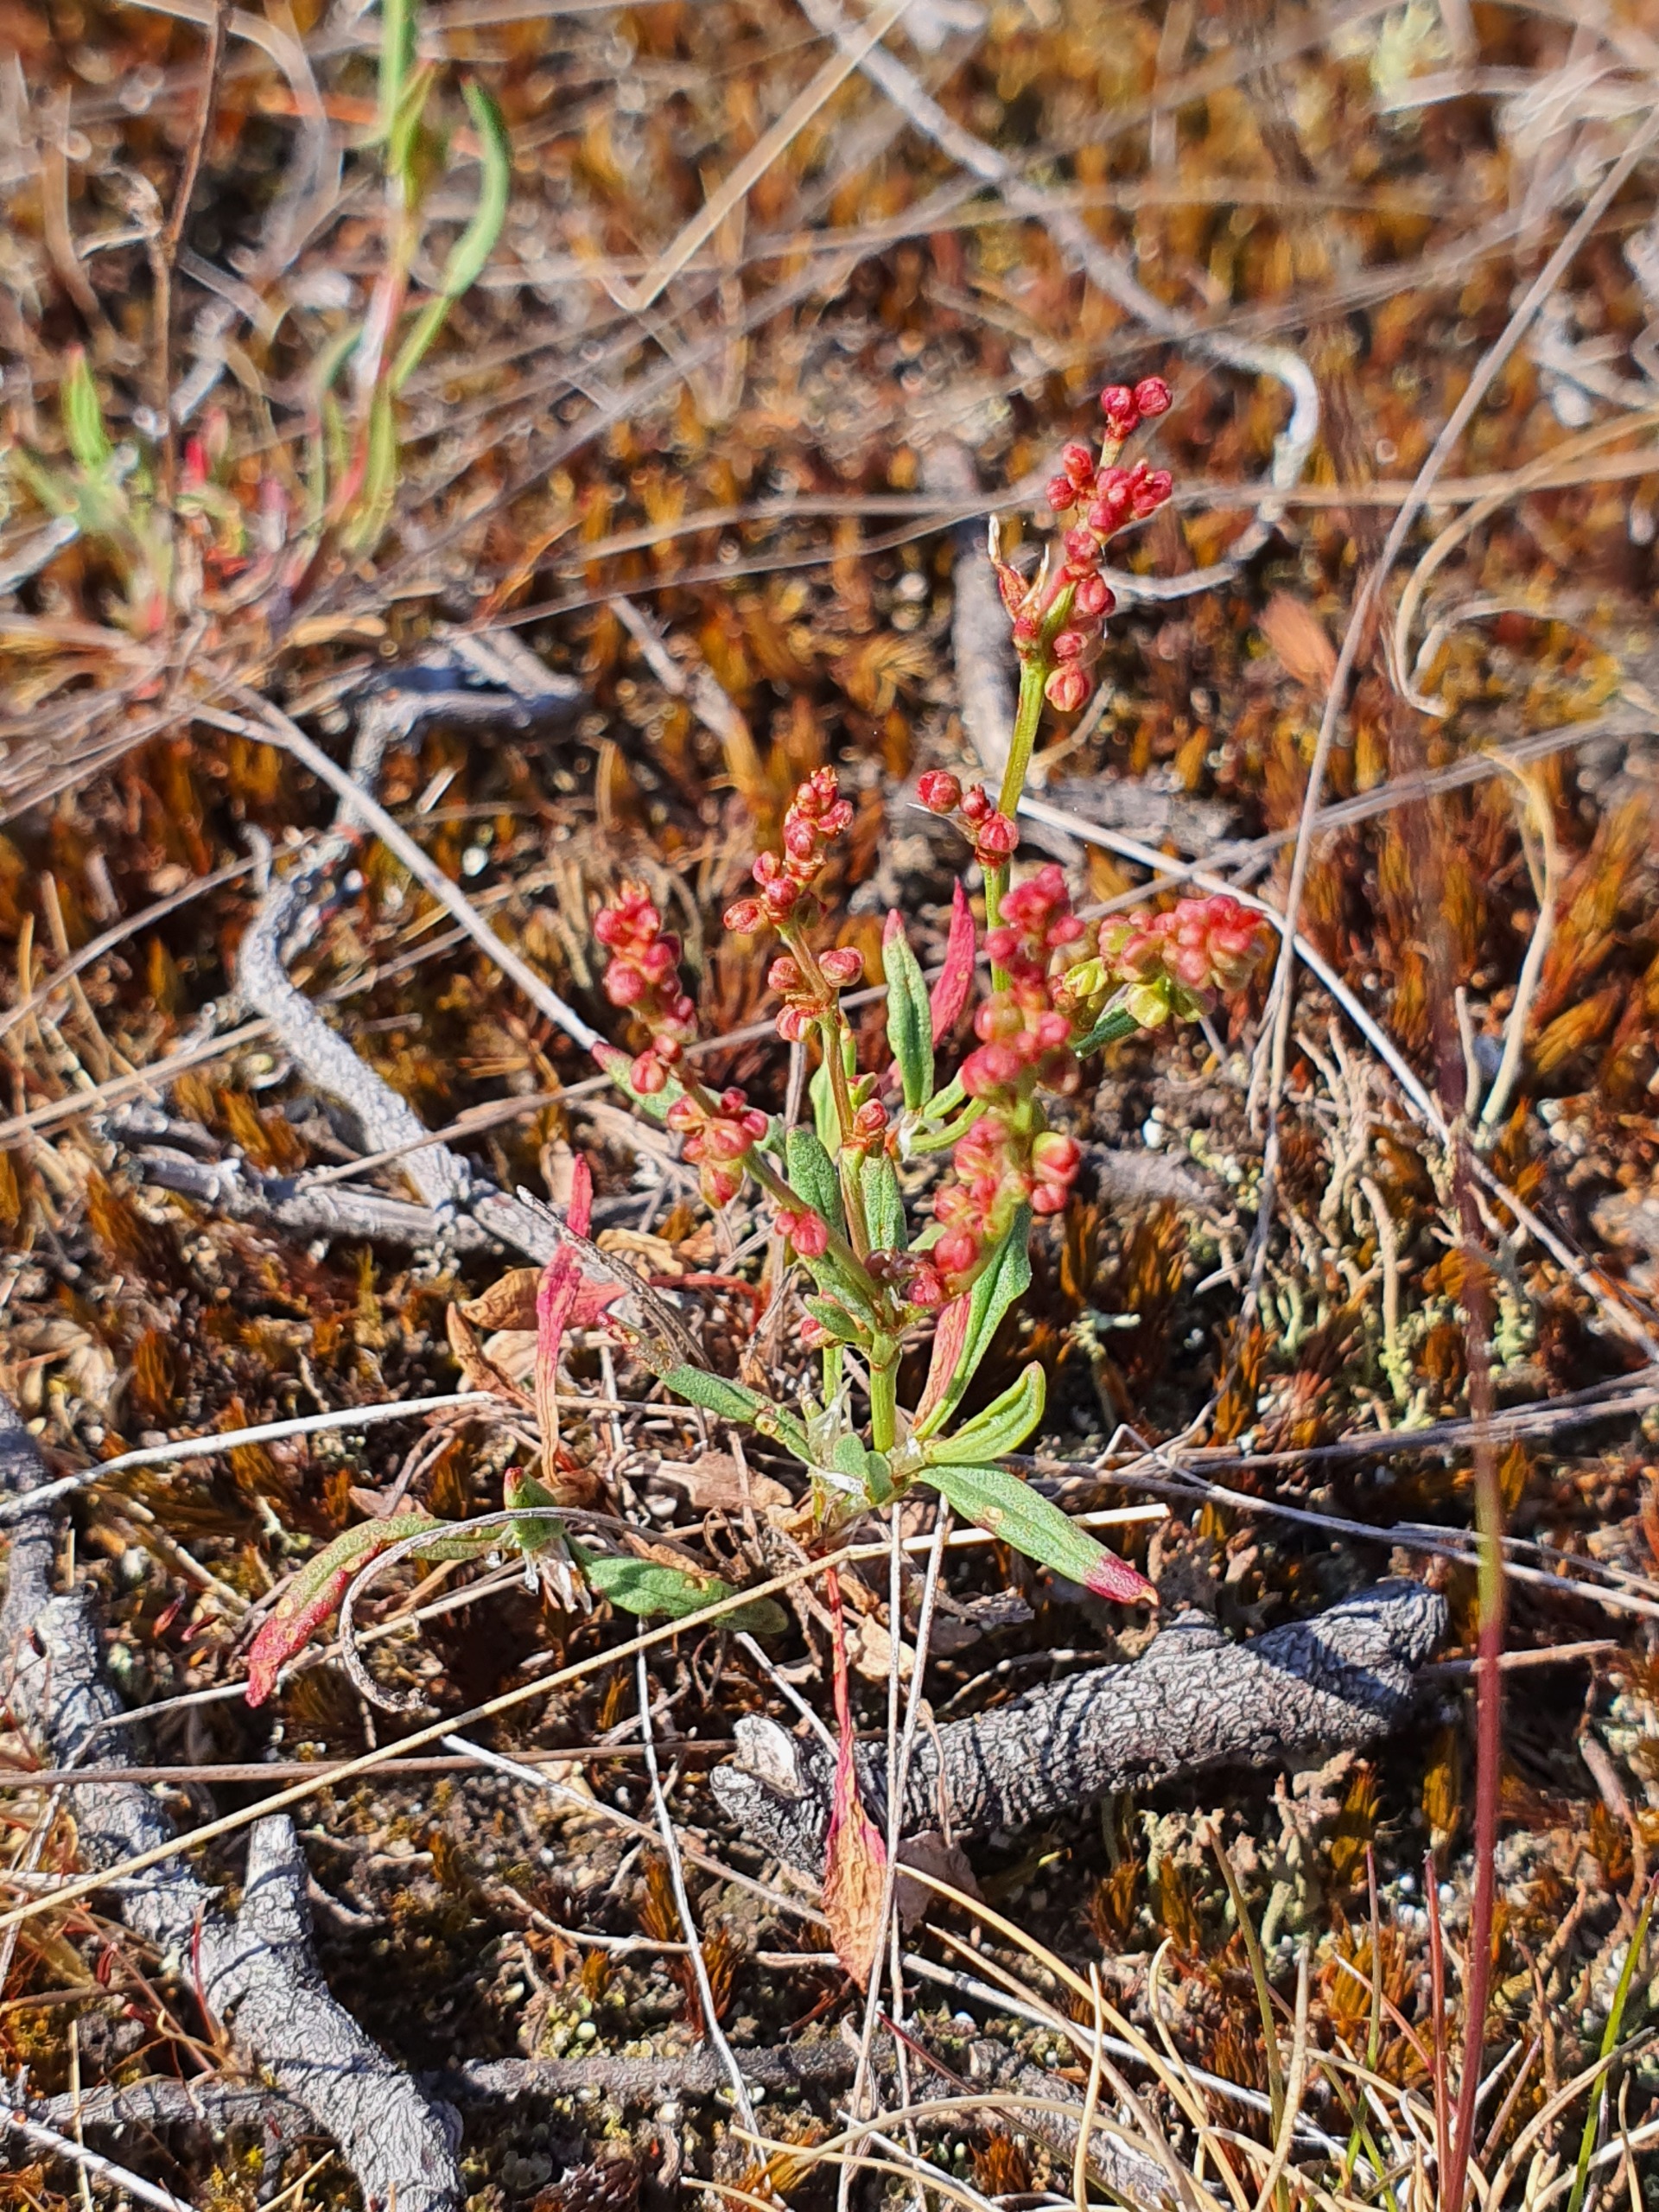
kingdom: Plantae
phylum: Tracheophyta
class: Magnoliopsida
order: Caryophyllales
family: Polygonaceae
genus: Rumex
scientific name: Rumex acetosella
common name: Rødknæ
